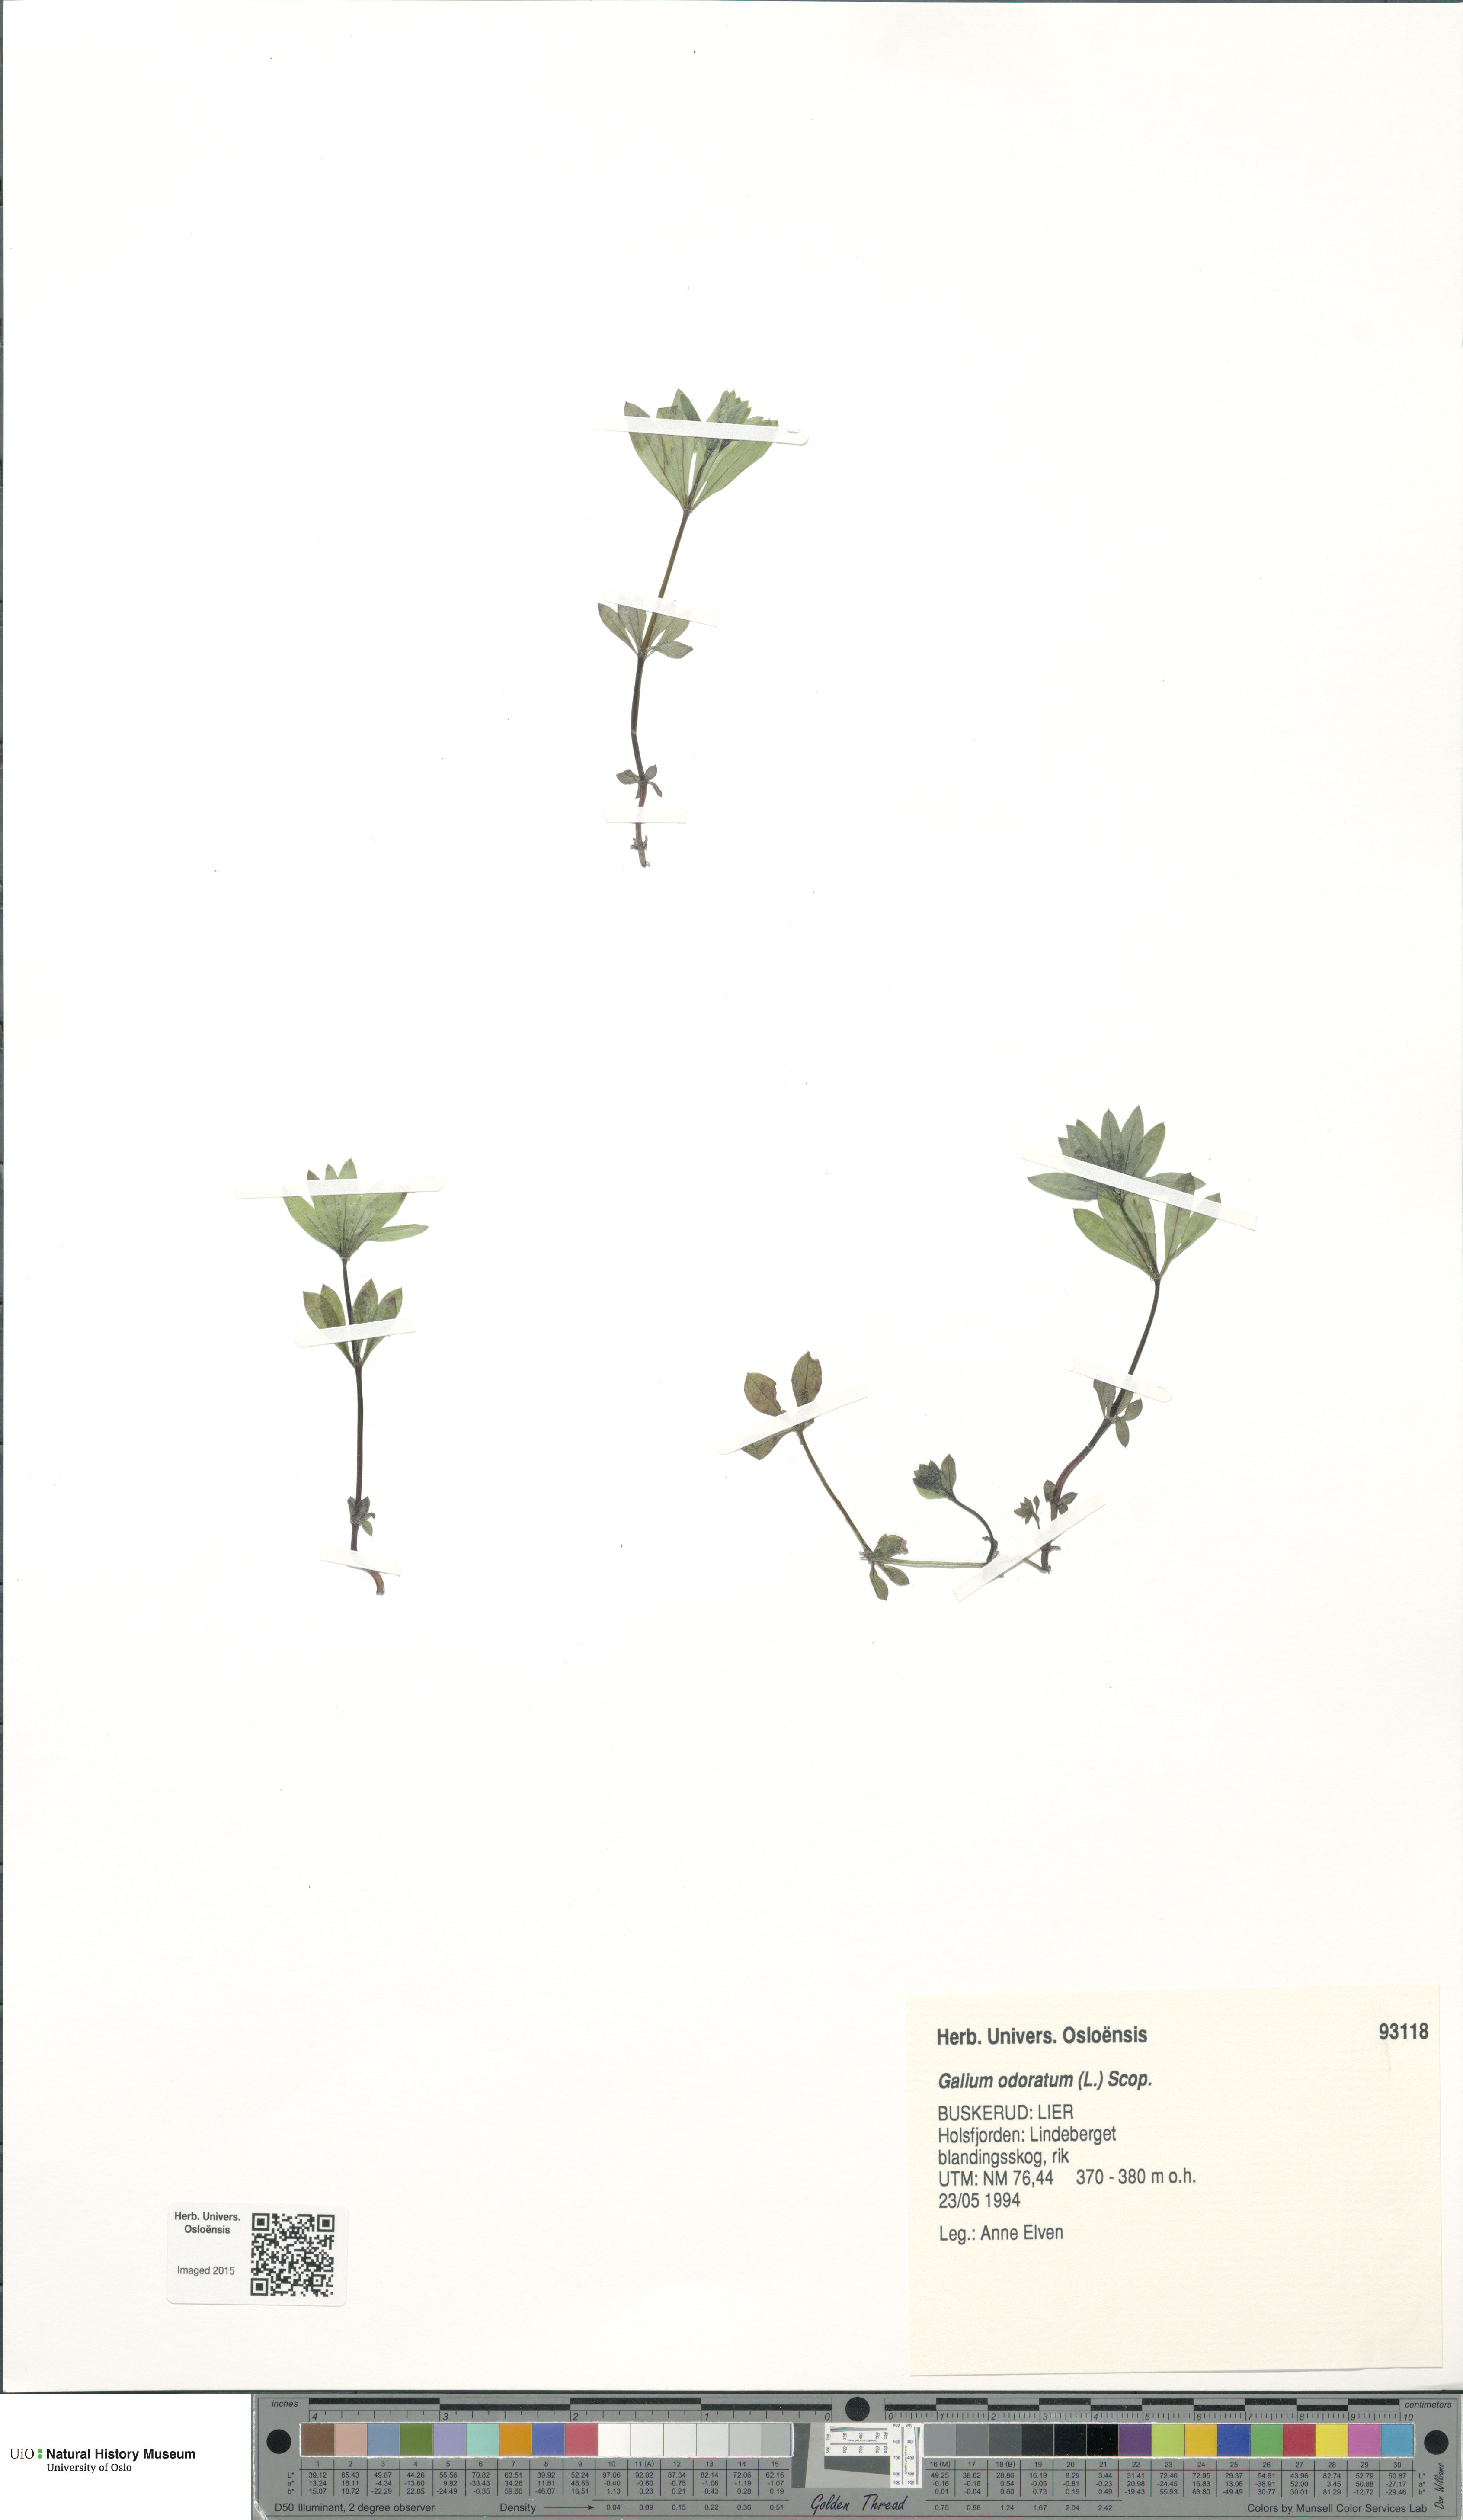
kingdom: Plantae
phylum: Tracheophyta
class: Magnoliopsida
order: Gentianales
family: Rubiaceae
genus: Galium
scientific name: Galium odoratum
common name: Sweet woodruff
